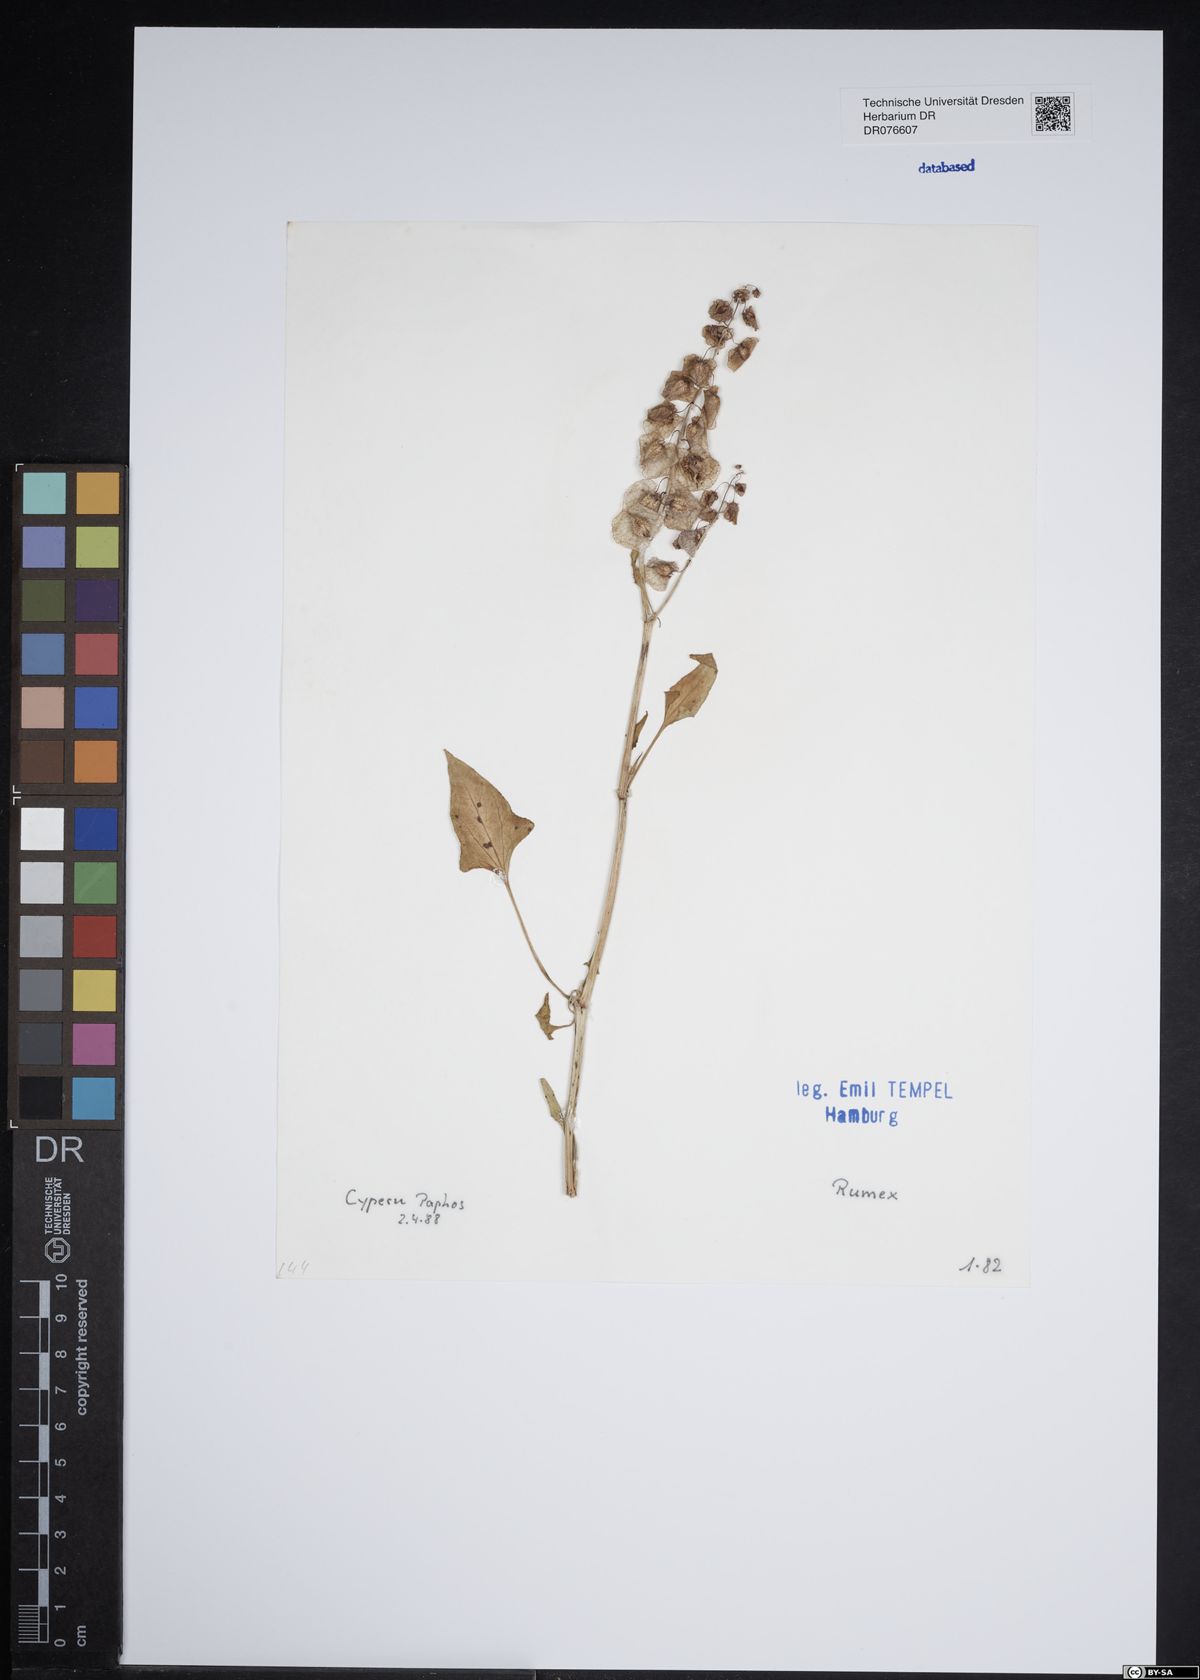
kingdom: Plantae
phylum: Tracheophyta
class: Magnoliopsida
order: Caryophyllales
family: Polygonaceae
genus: Rumex
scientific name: Rumex
